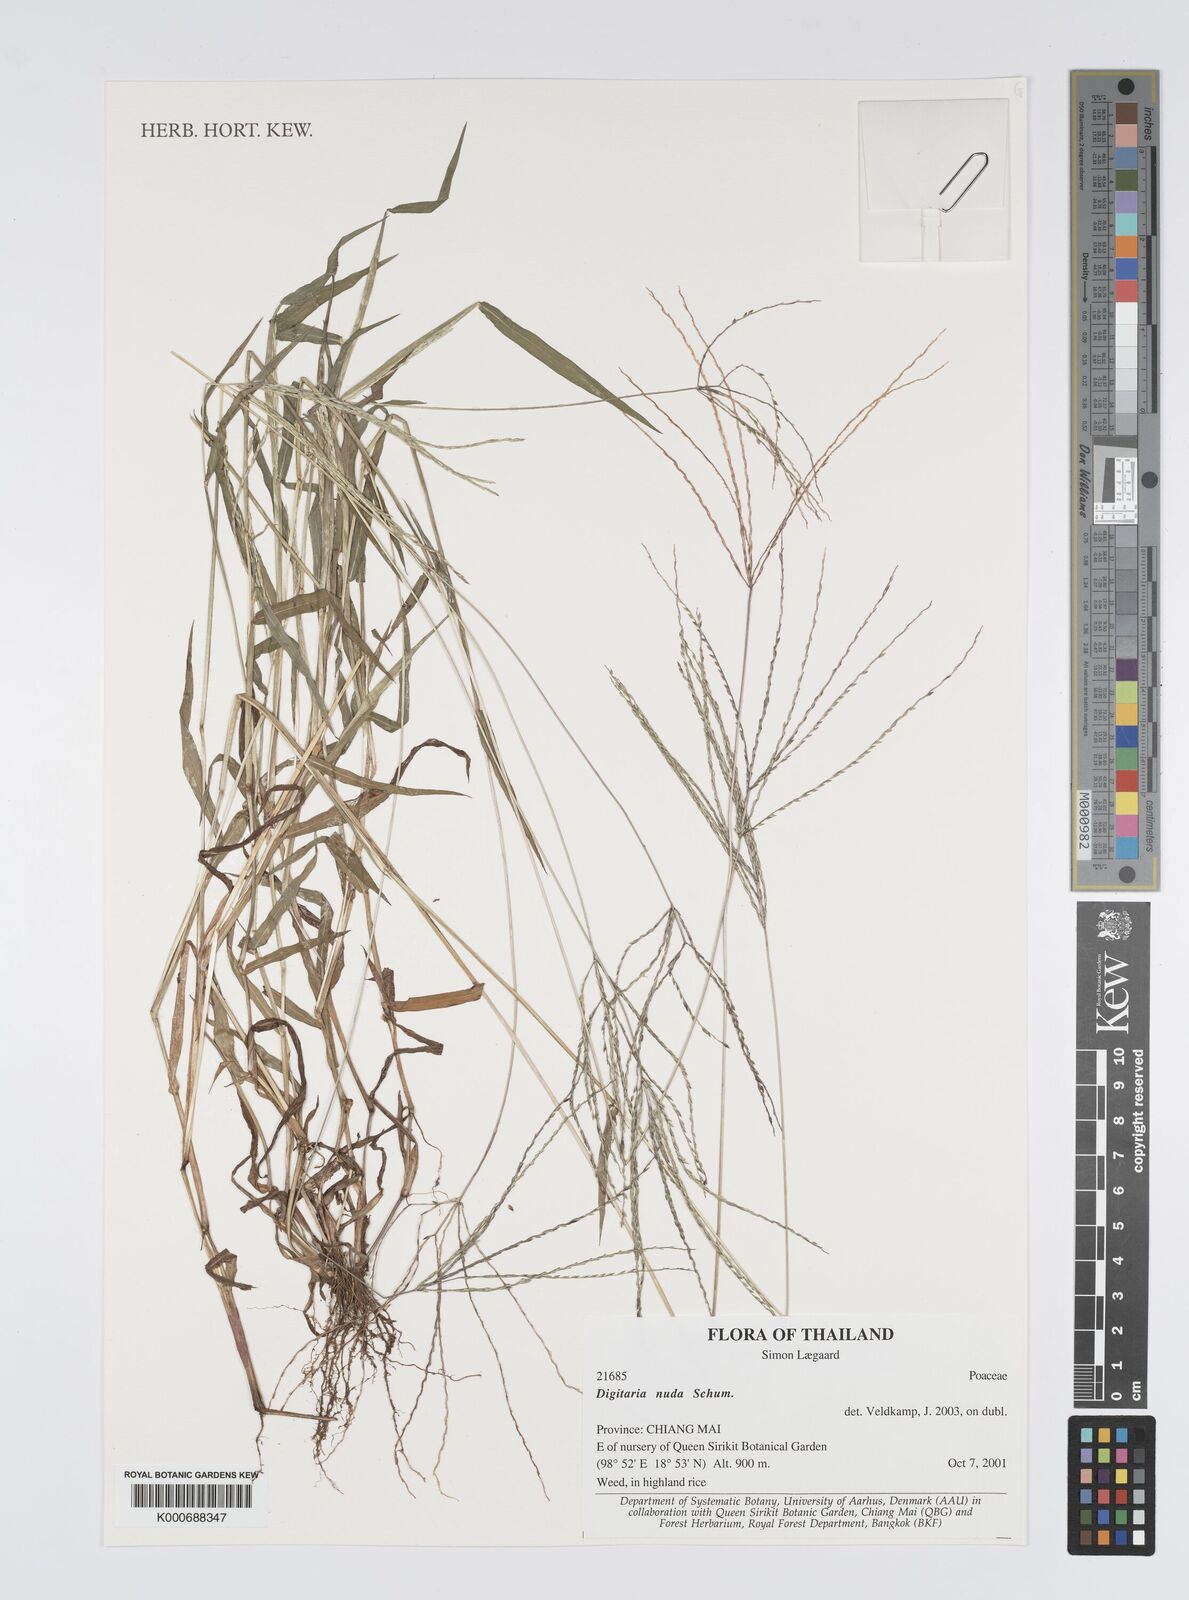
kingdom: Plantae
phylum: Tracheophyta
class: Liliopsida
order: Poales
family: Poaceae
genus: Digitaria
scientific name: Digitaria nuda
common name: Naked crabgrass
